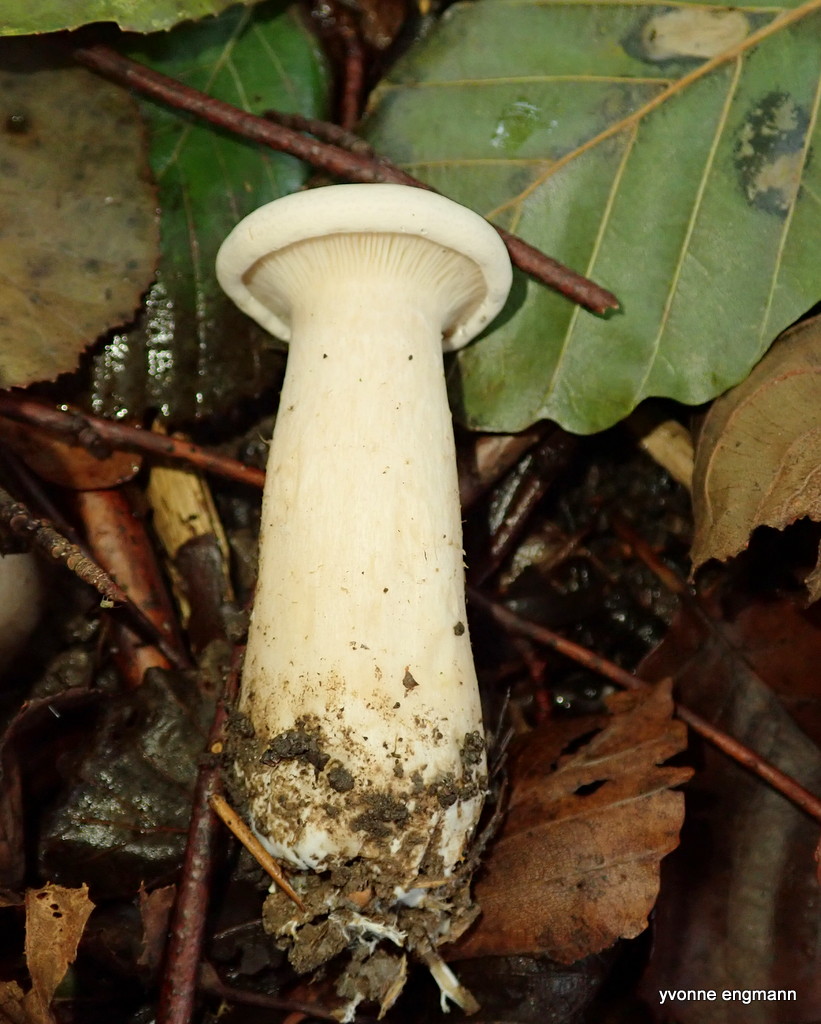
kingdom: Fungi
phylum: Basidiomycota
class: Agaricomycetes
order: Agaricales
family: Tricholomataceae
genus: Infundibulicybe
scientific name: Infundibulicybe geotropa
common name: stor tragthat
